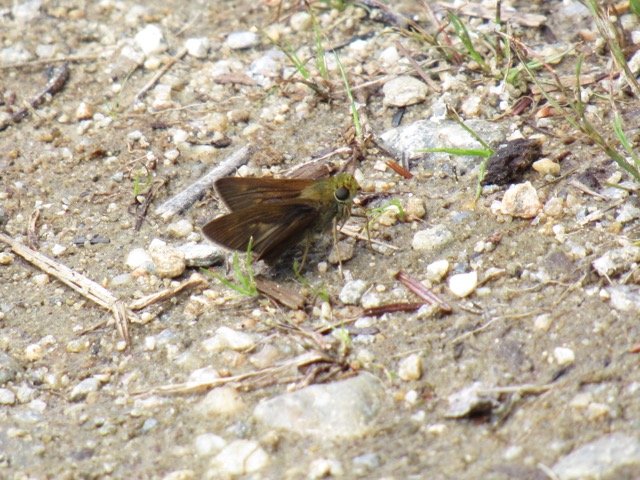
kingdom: Animalia
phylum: Arthropoda
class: Insecta
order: Lepidoptera
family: Hesperiidae
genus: Polites
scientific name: Polites egeremet
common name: Northern Broken-Dash
